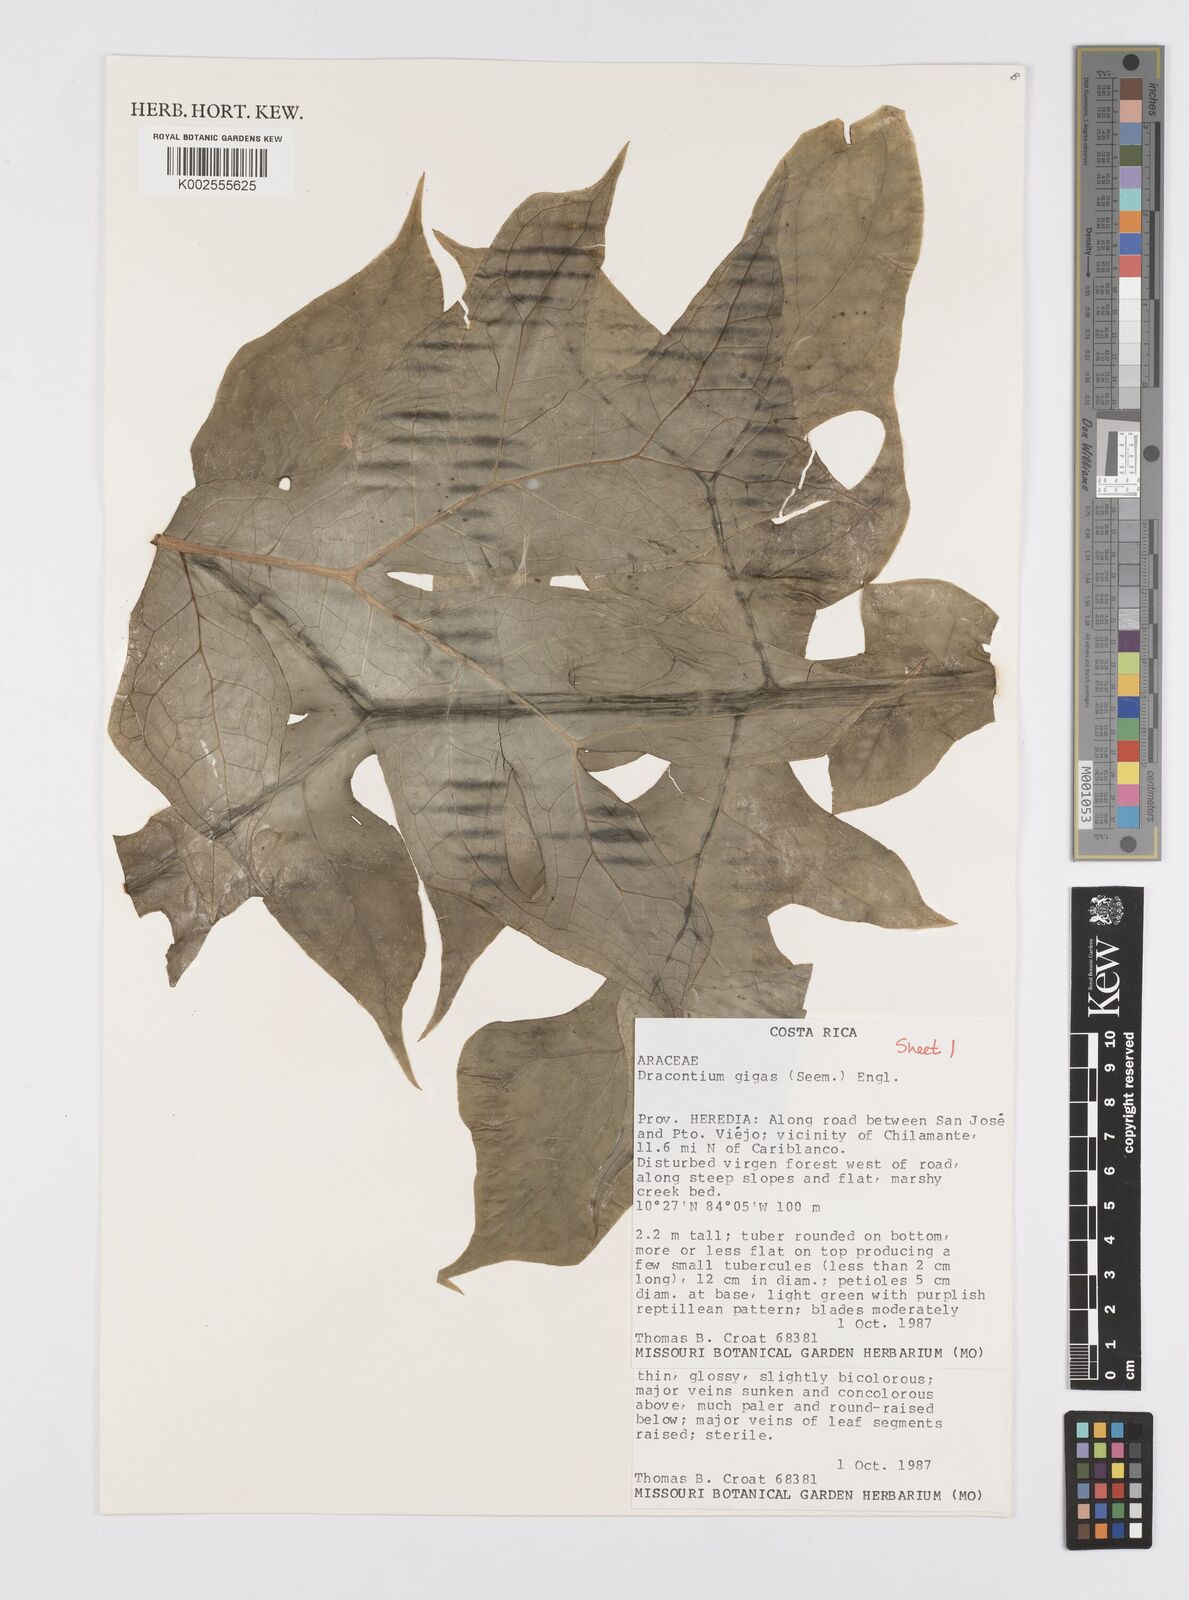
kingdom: Plantae
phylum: Tracheophyta
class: Liliopsida
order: Alismatales
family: Araceae
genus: Dracontium
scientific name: Dracontium gigas
